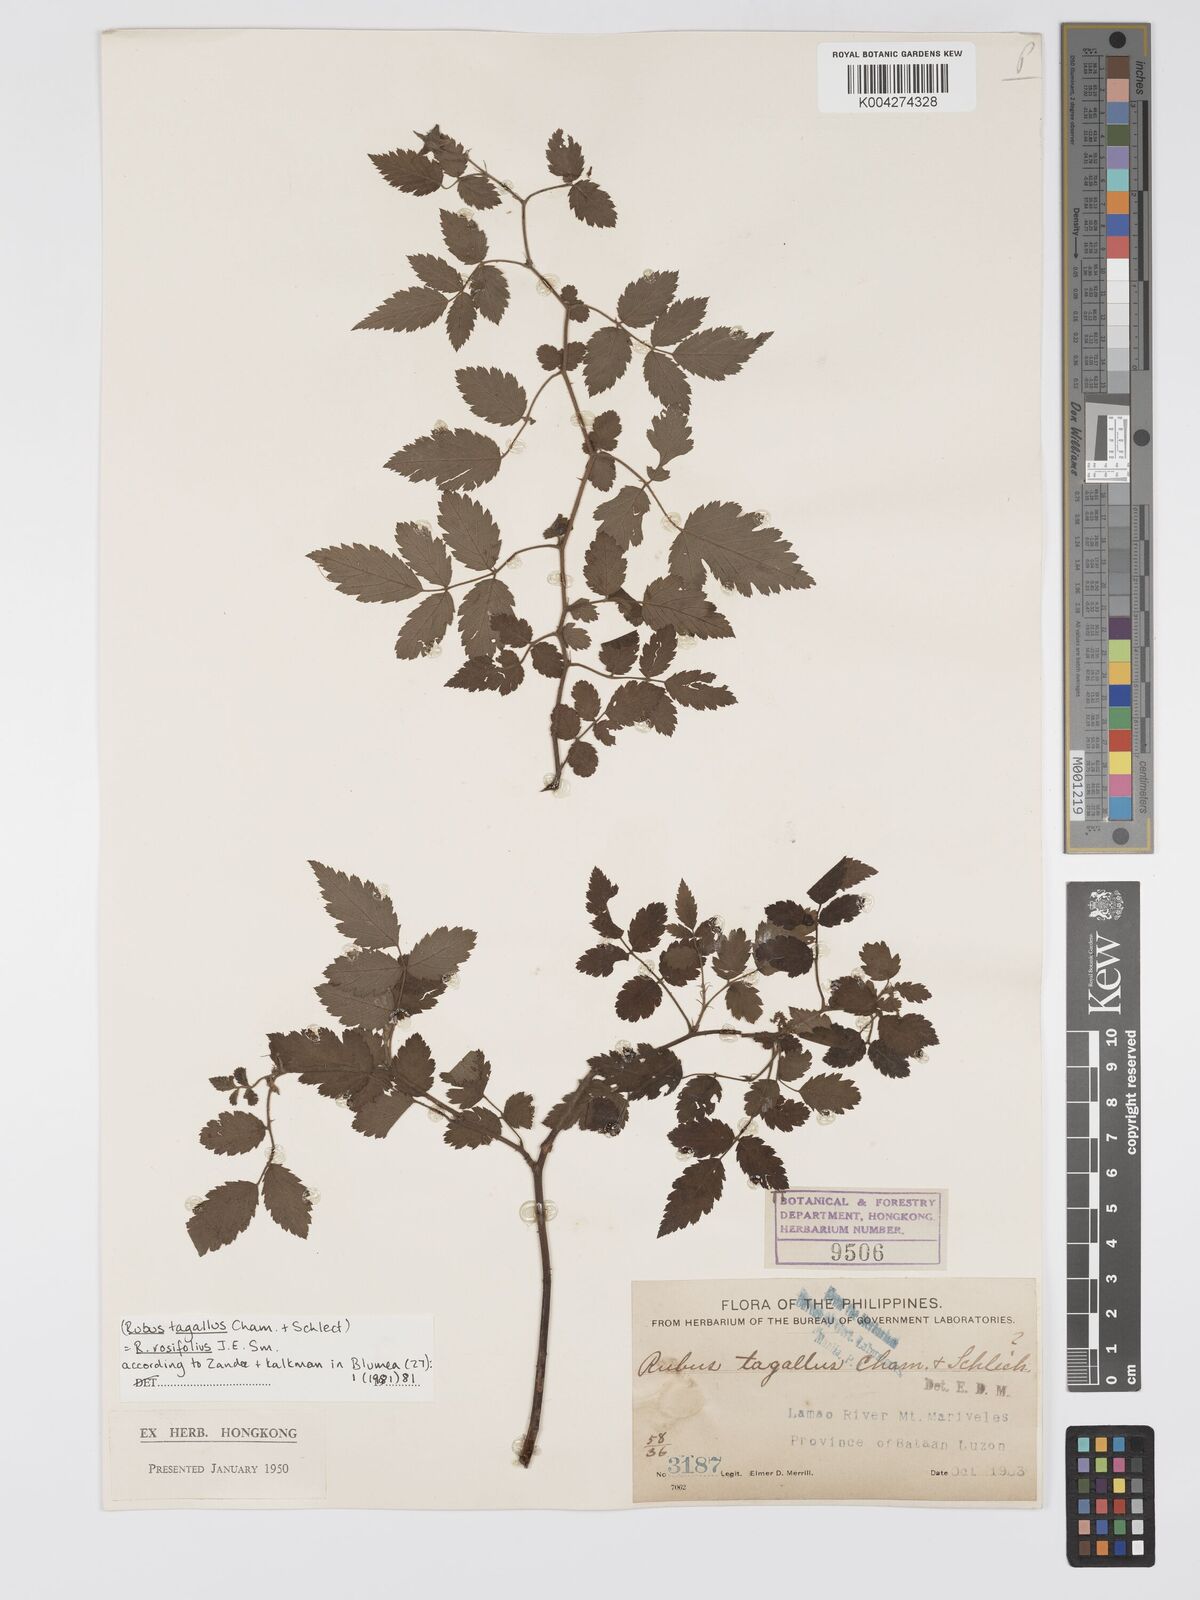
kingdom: Plantae
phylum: Tracheophyta
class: Magnoliopsida
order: Rosales
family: Rosaceae
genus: Rubus
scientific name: Rubus
